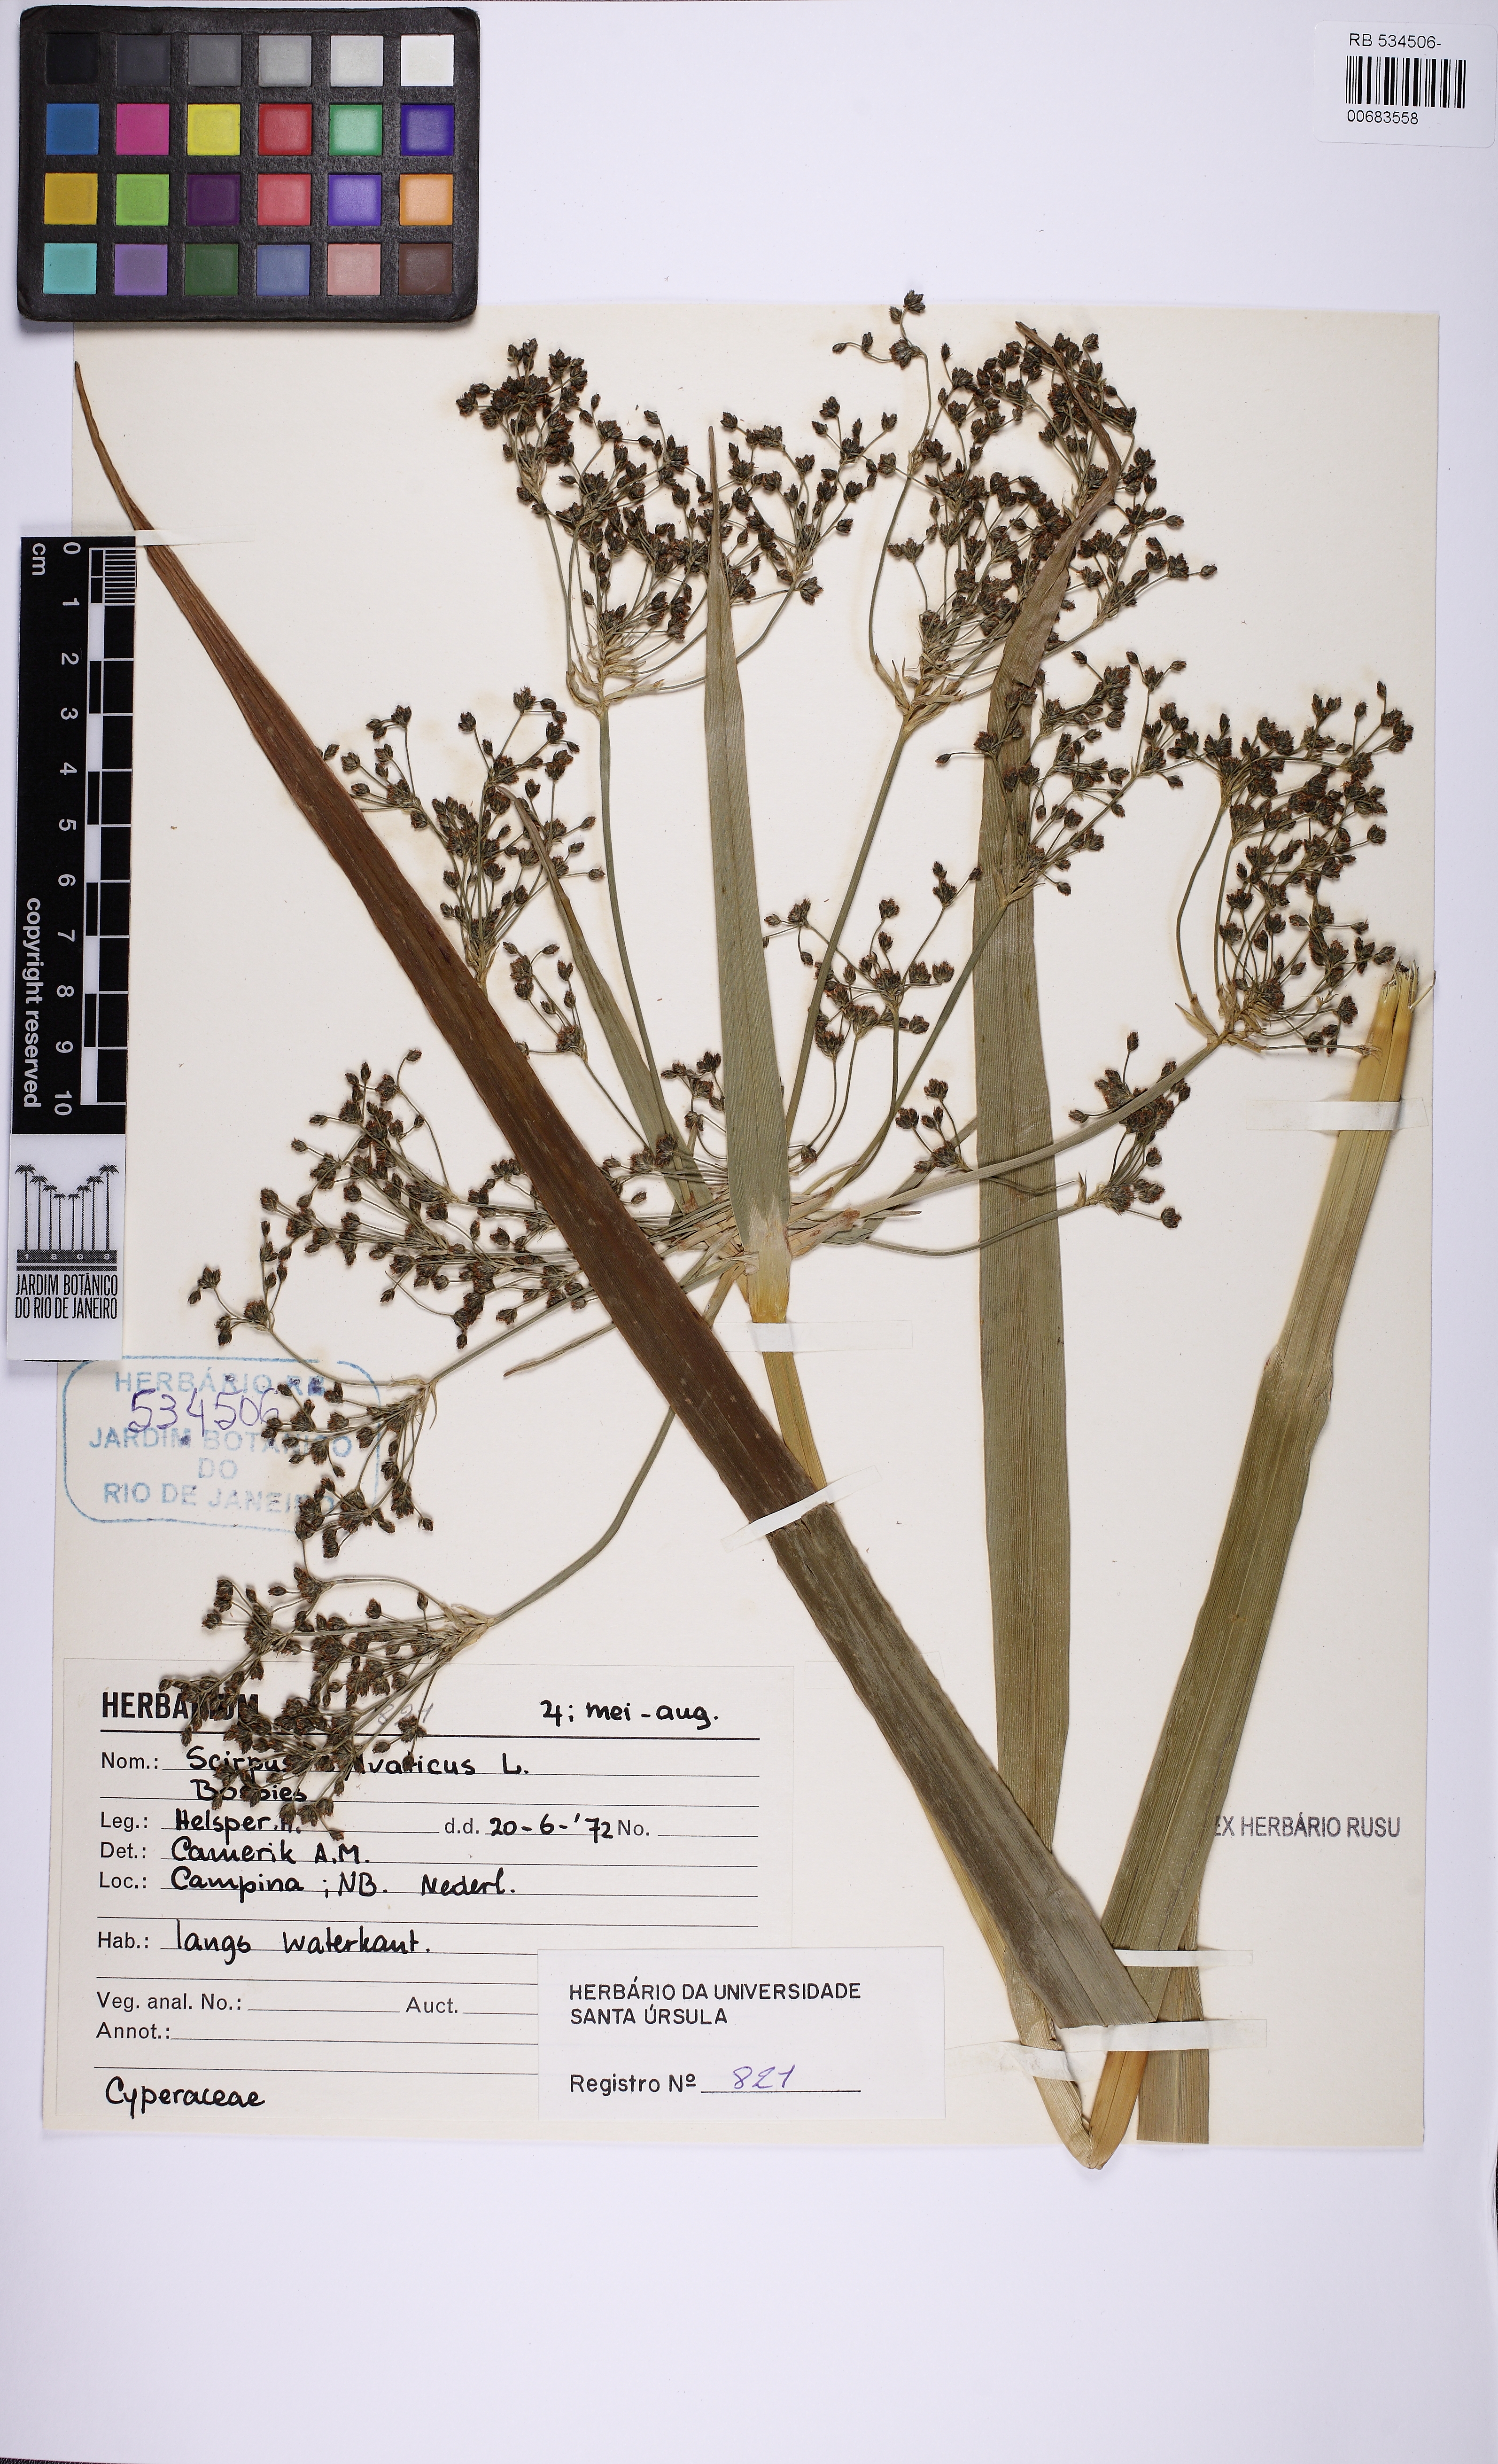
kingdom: Plantae
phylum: Tracheophyta
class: Liliopsida
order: Poales
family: Cyperaceae
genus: Scirpus
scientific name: Scirpus sylvaticus
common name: Wood club-rush
